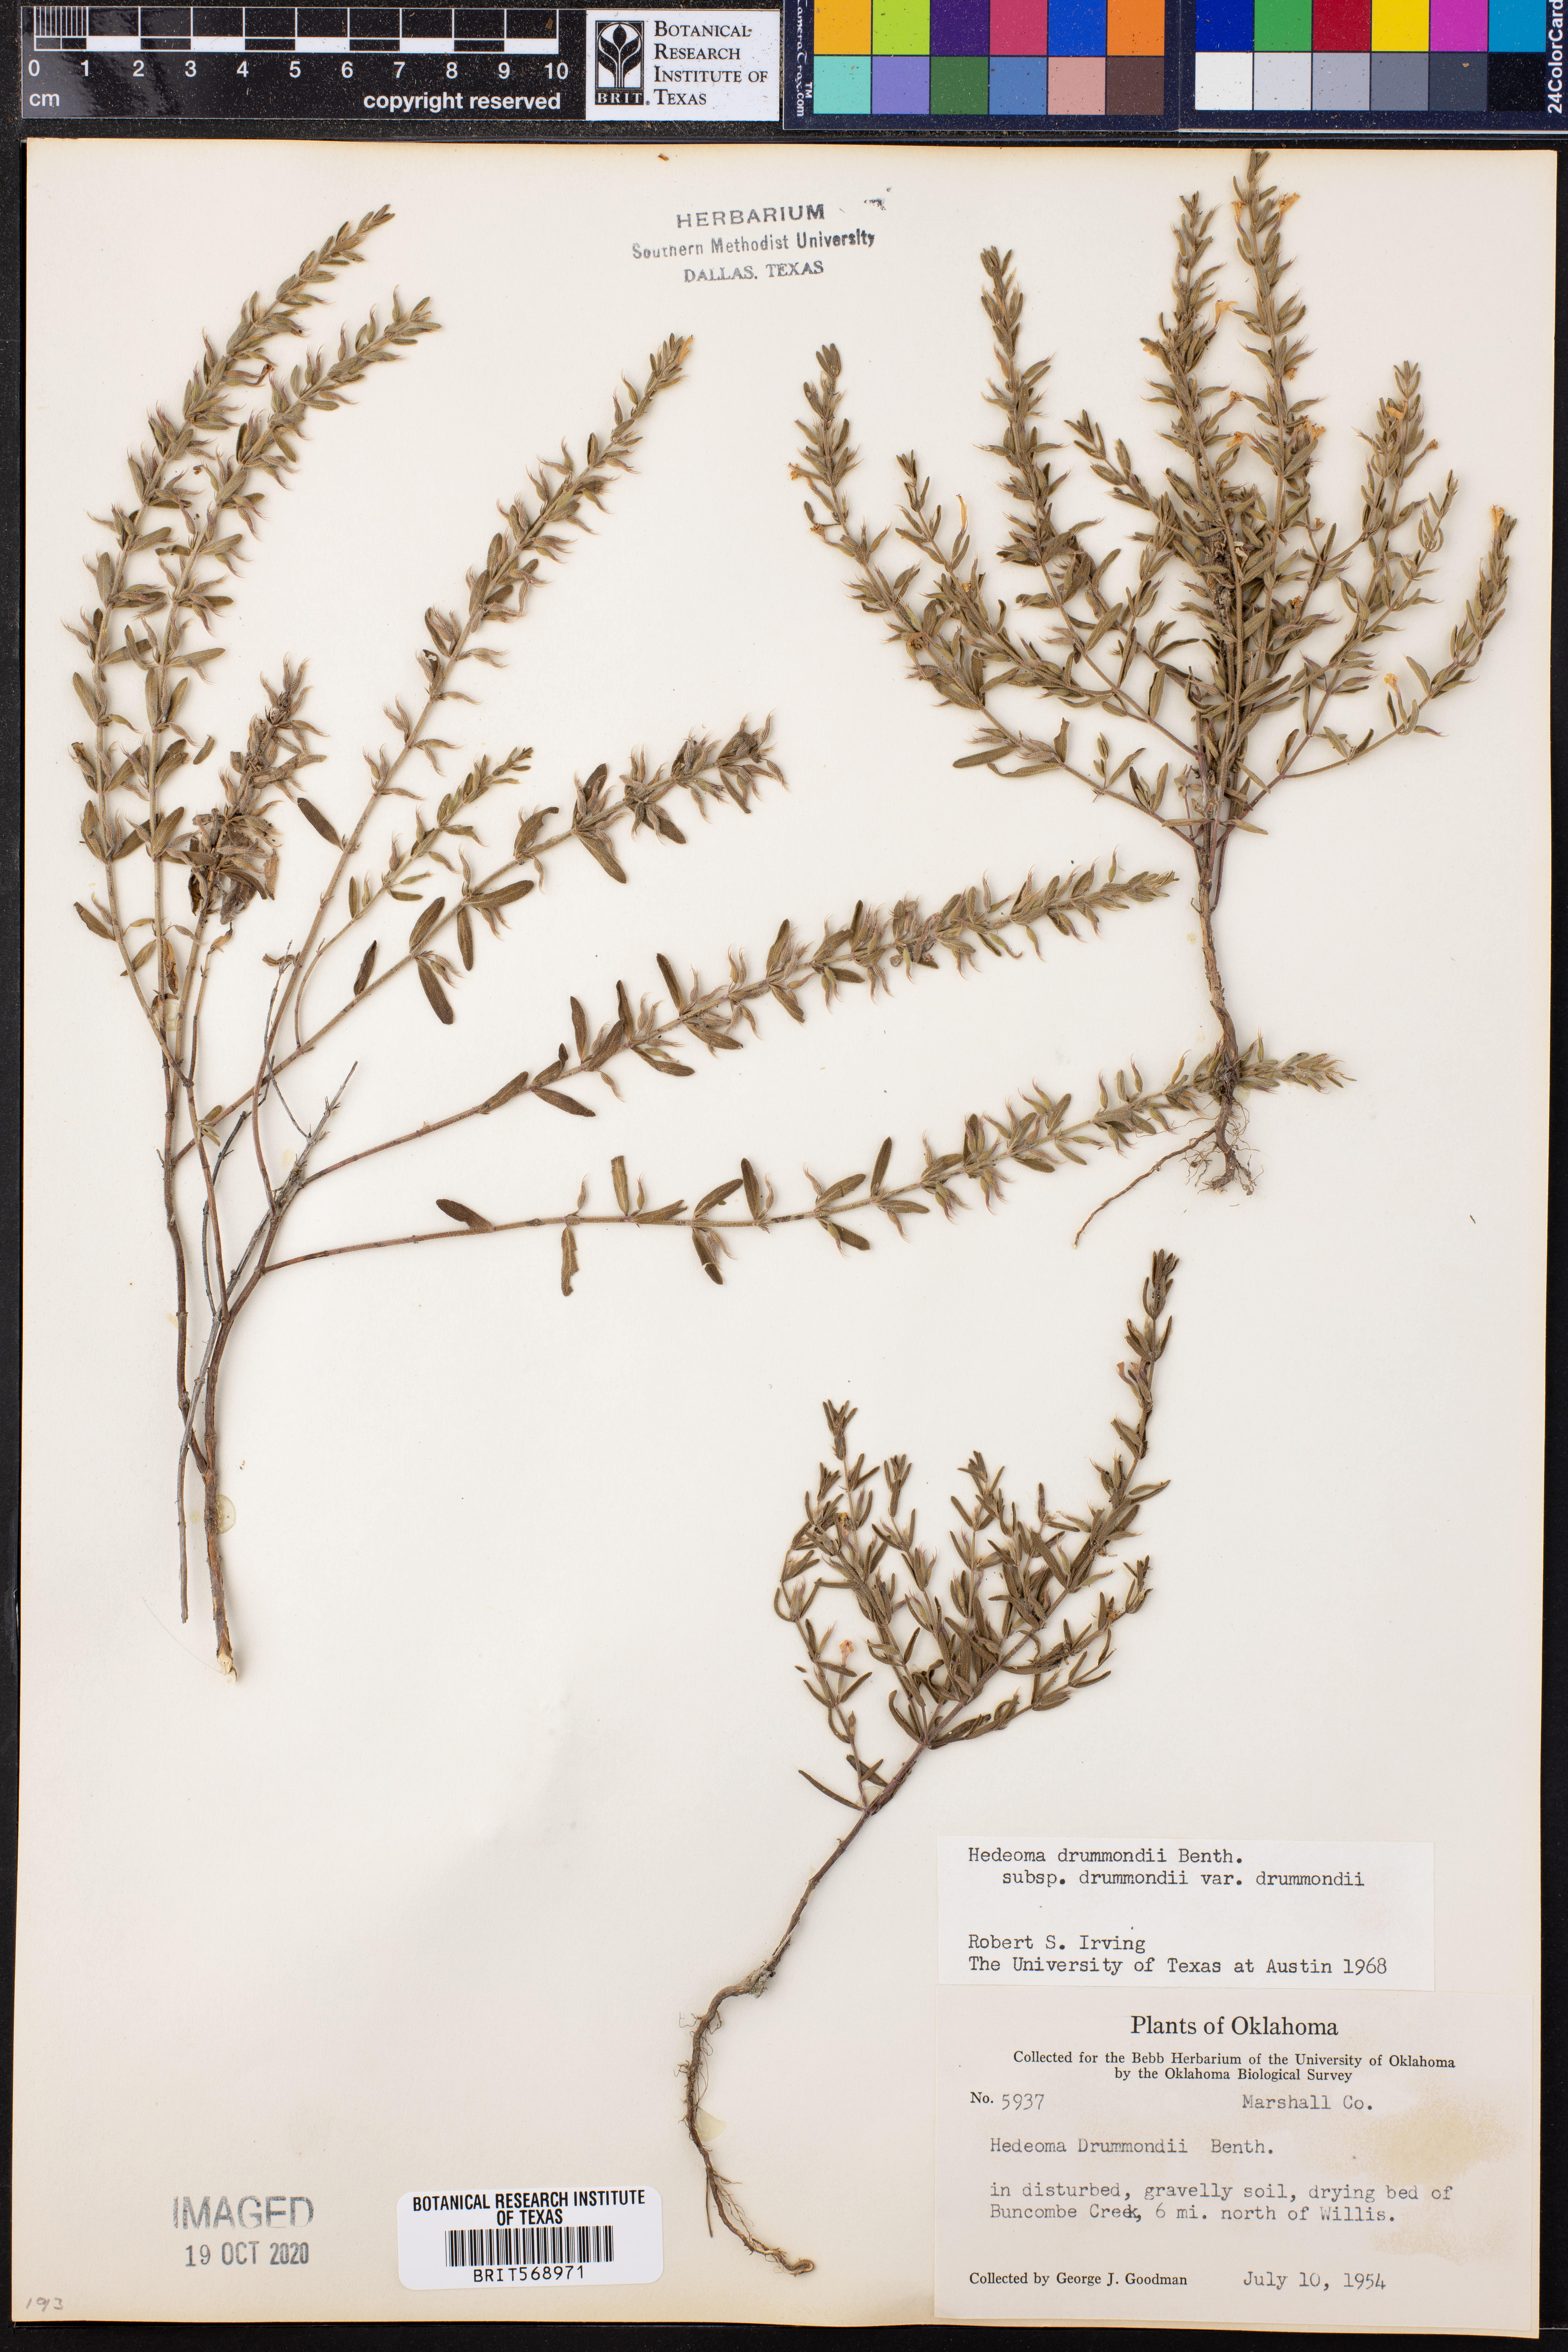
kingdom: Plantae
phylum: Tracheophyta
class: Magnoliopsida
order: Lamiales
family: Lamiaceae
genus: Hedeoma
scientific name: Hedeoma drummondii
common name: New mexico pennyroyal
